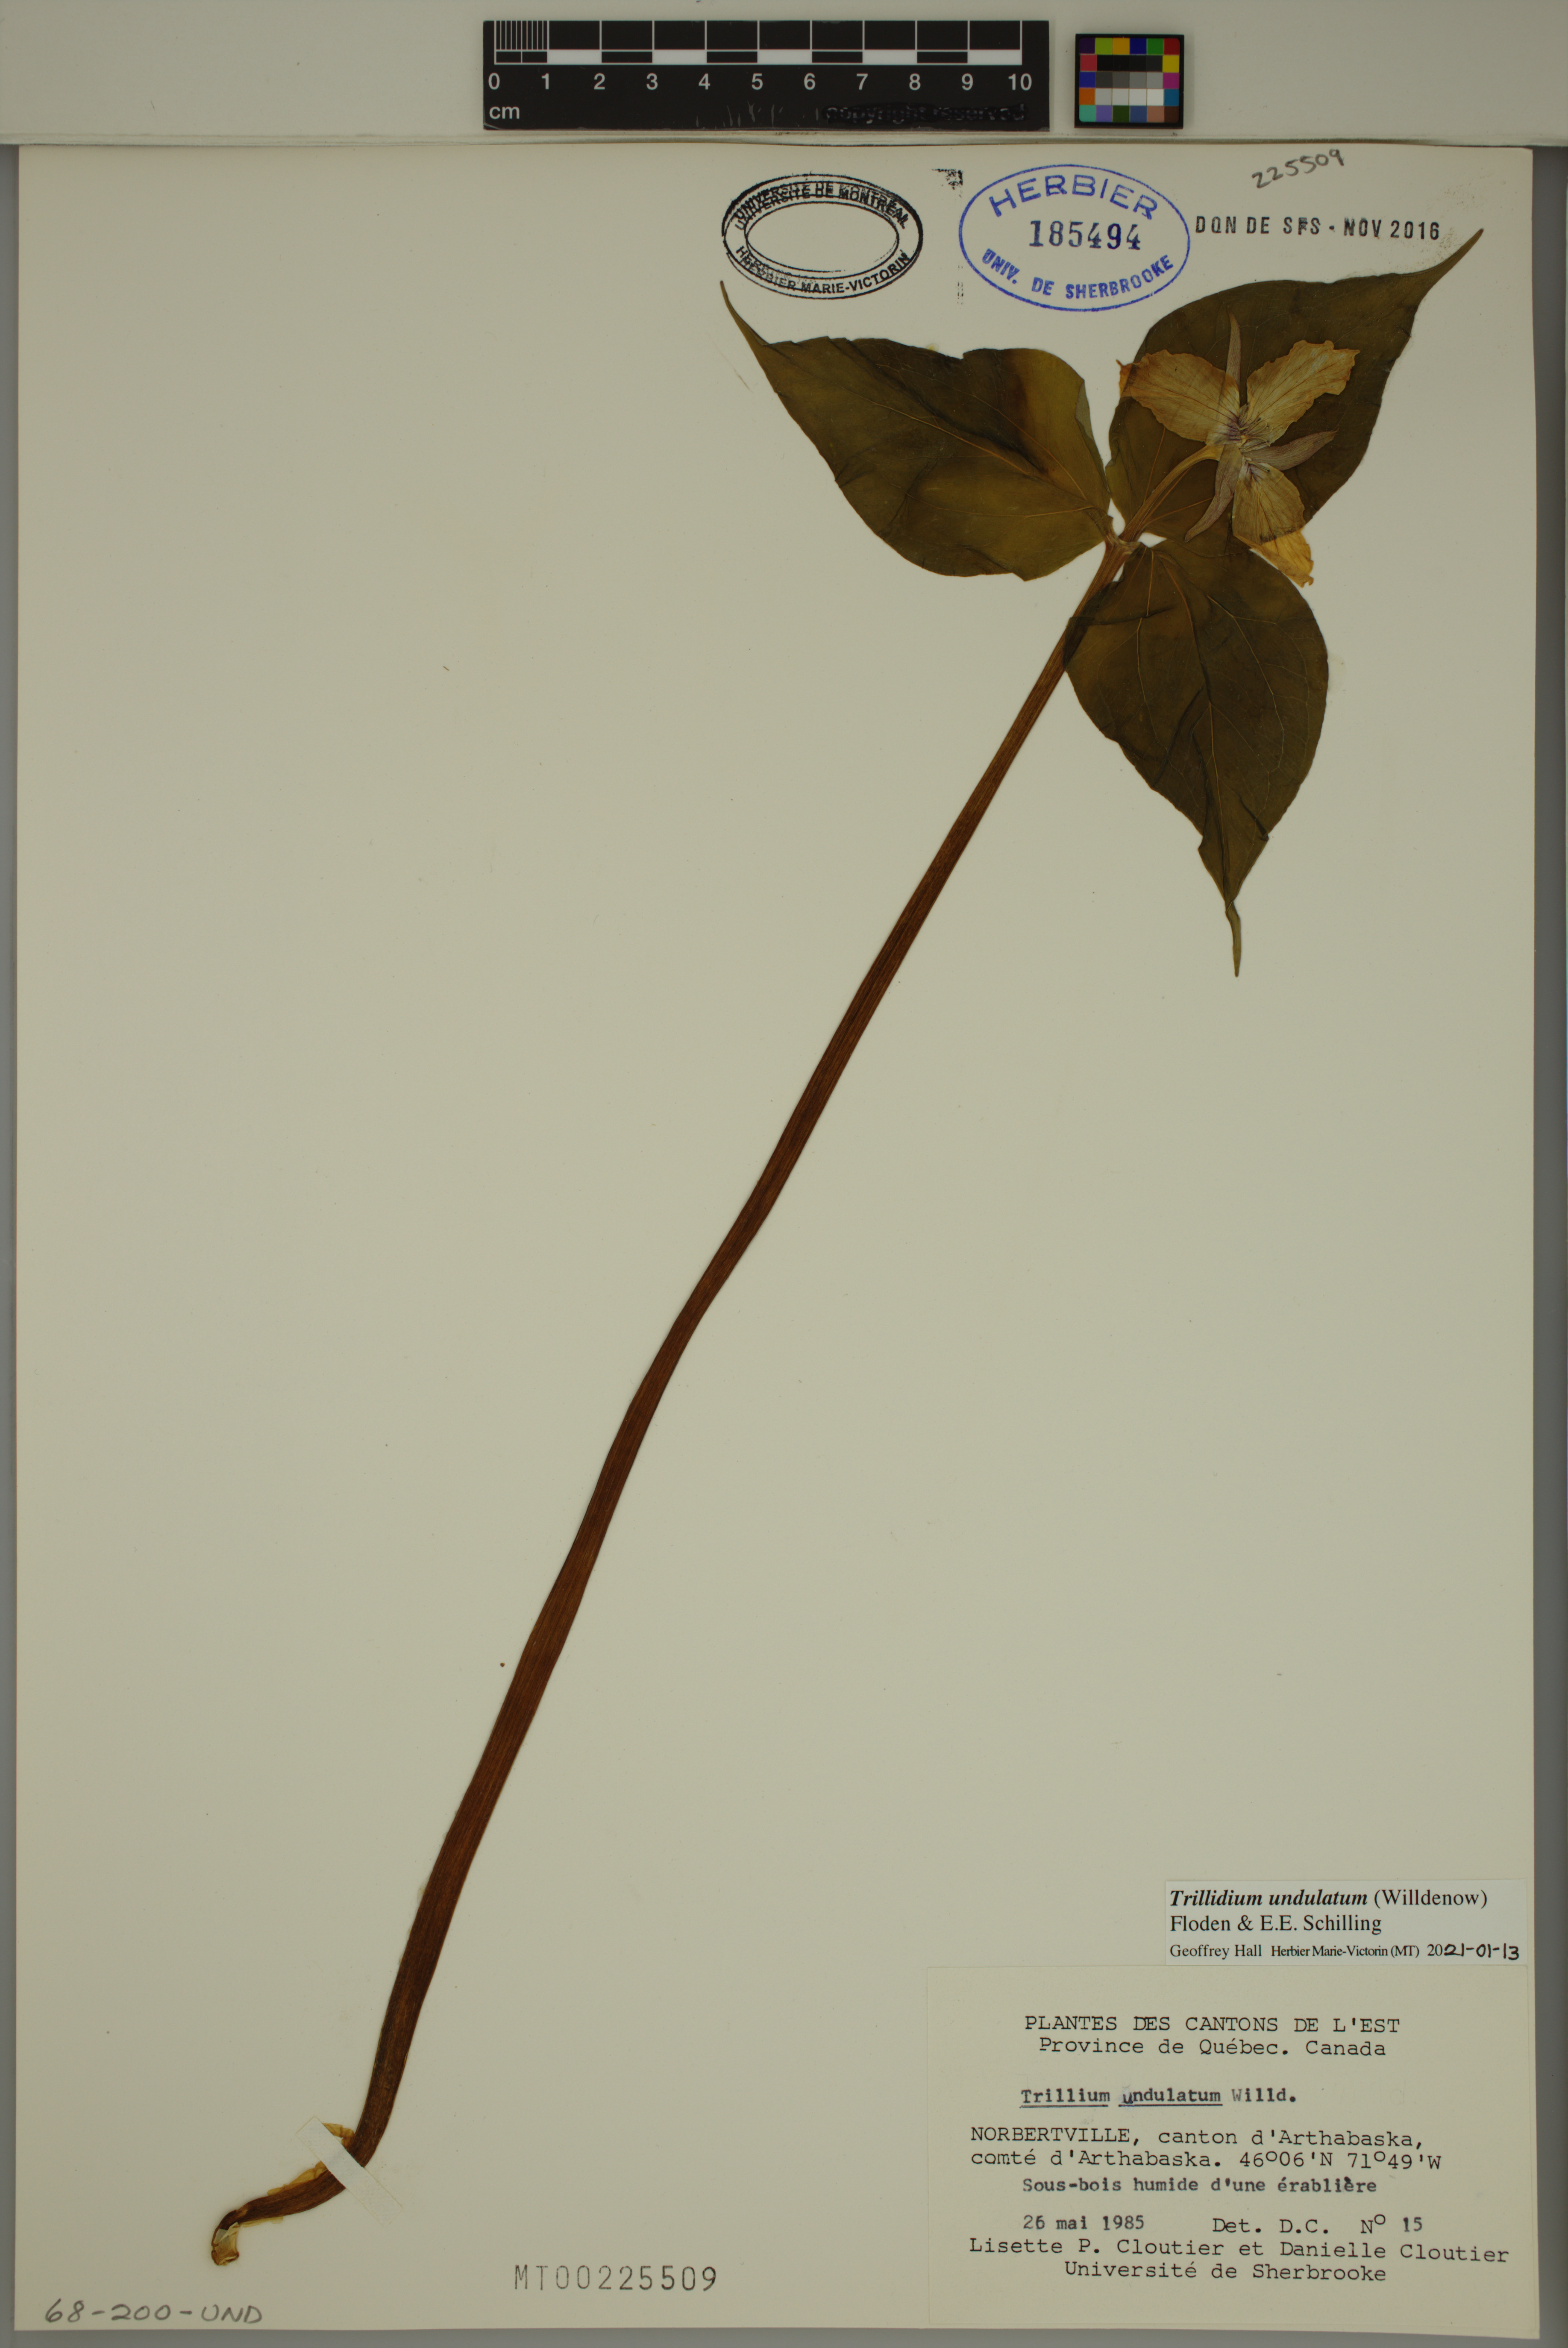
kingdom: Plantae
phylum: Tracheophyta
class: Liliopsida
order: Liliales
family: Melanthiaceae
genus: Trillium
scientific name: Trillium undulatum
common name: Paint trillium
